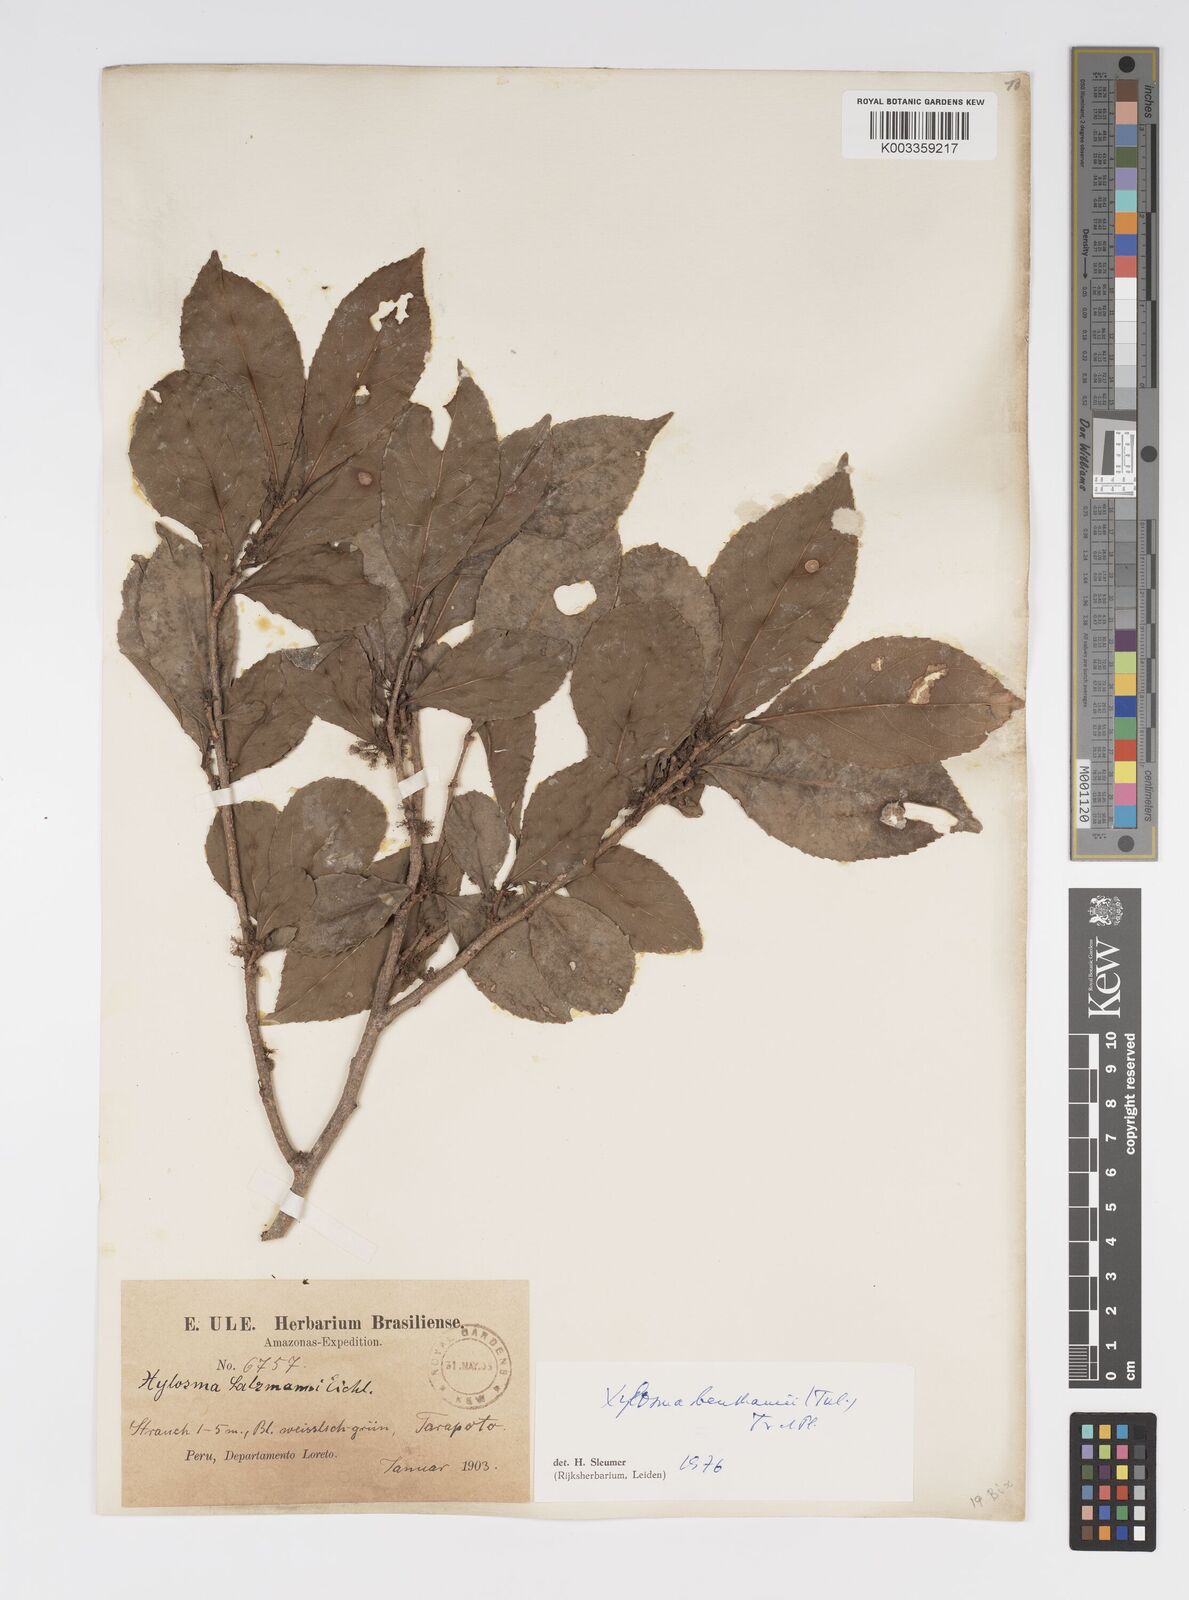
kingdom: Plantae
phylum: Tracheophyta
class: Magnoliopsida
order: Malpighiales
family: Salicaceae
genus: Xylosma
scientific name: Xylosma benthamii
